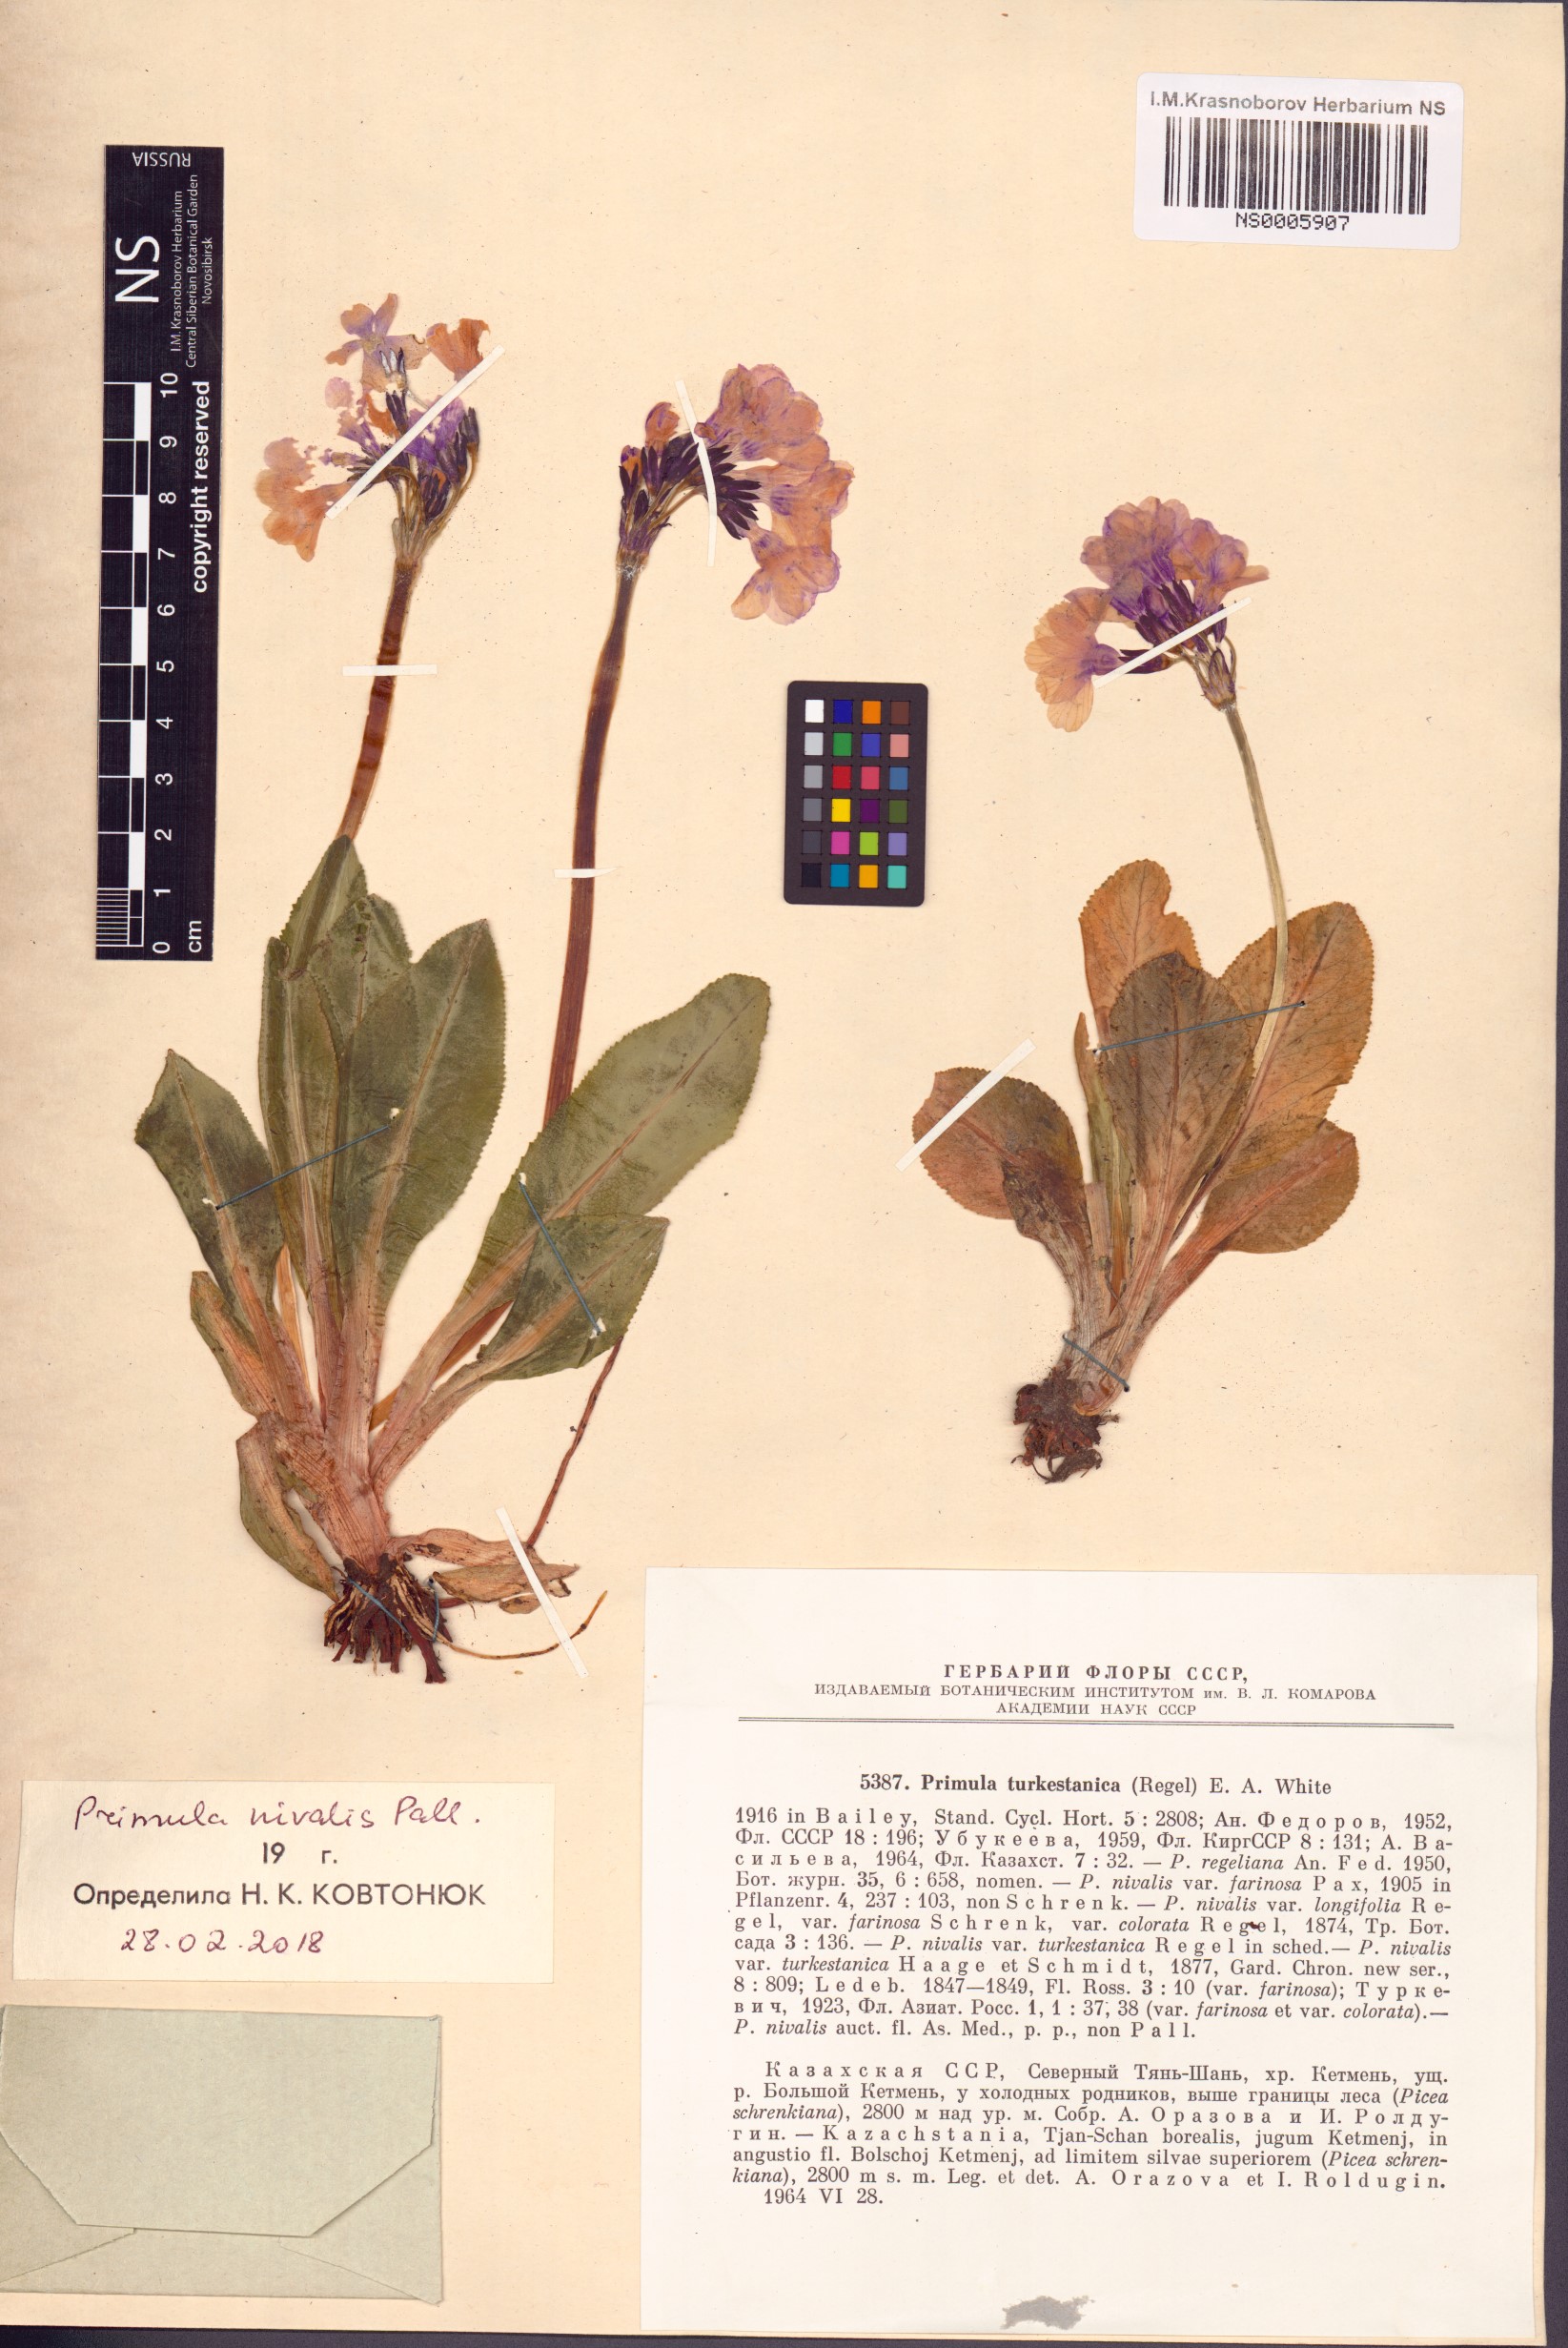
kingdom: Plantae
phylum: Tracheophyta
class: Magnoliopsida
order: Ericales
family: Primulaceae
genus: Primula
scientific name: Primula nivalis
